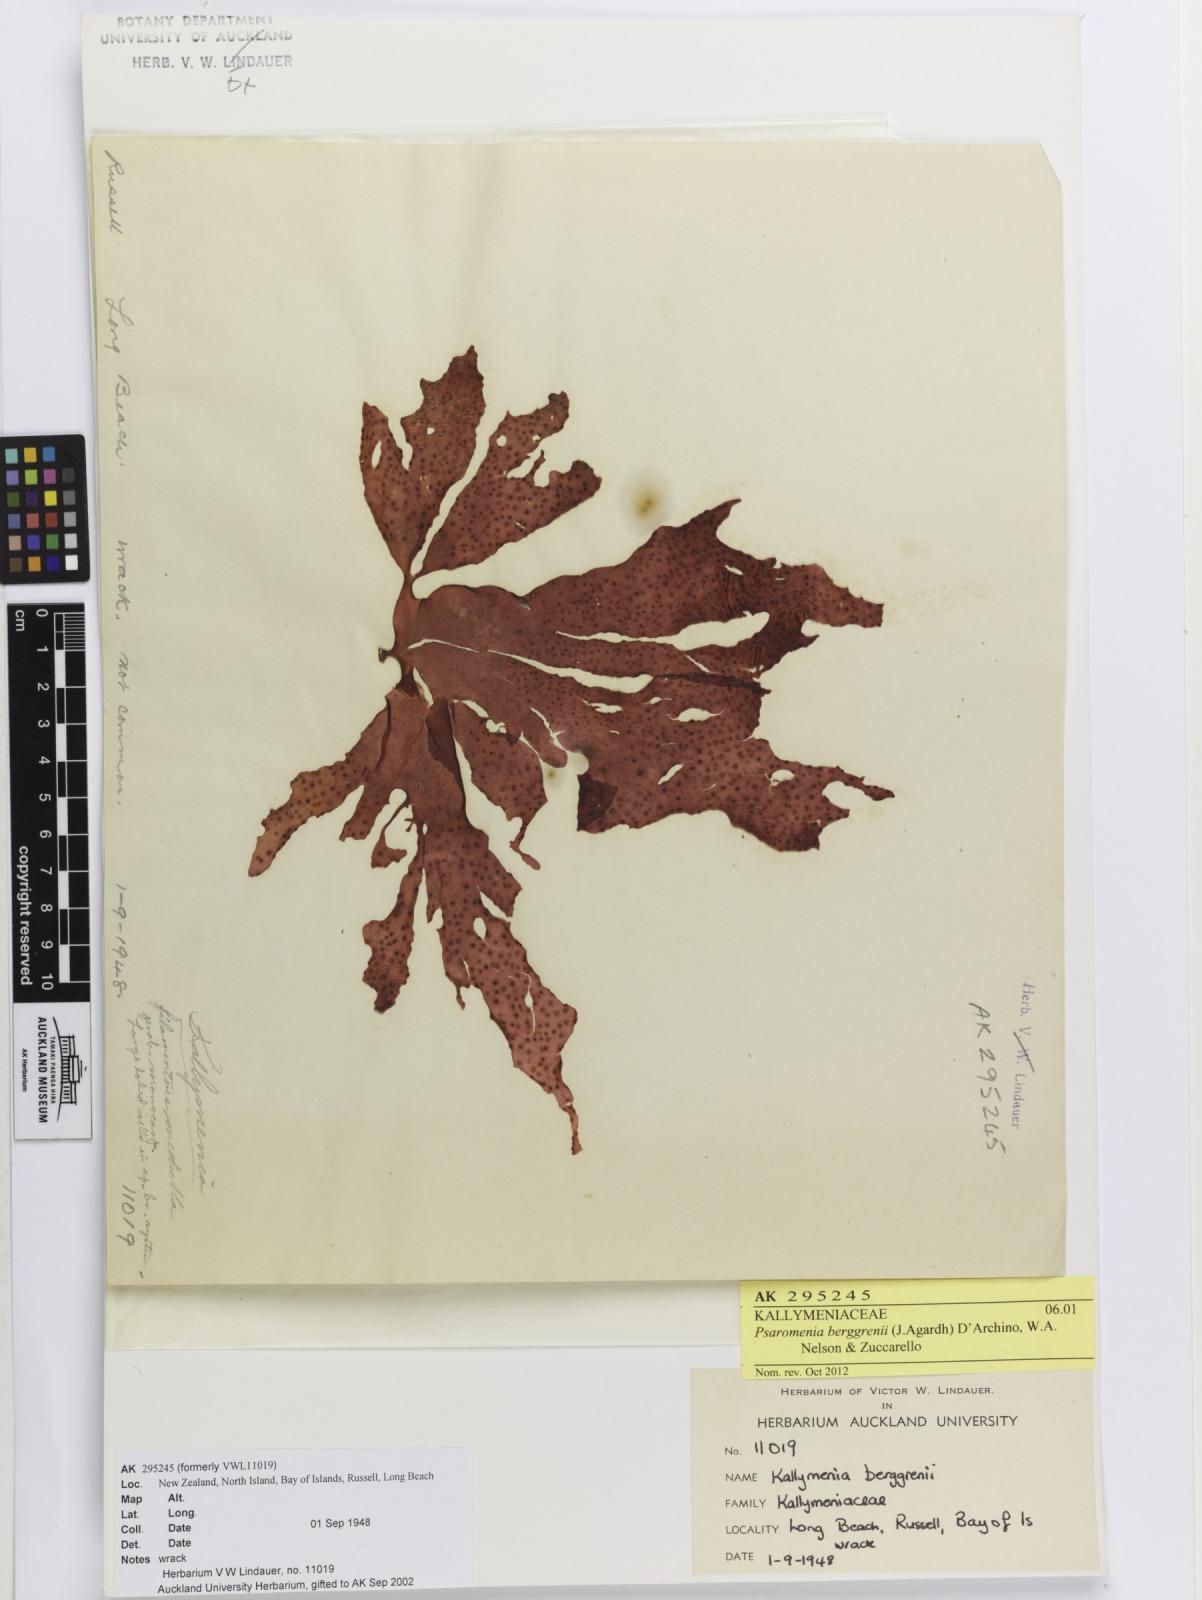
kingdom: Plantae
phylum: Rhodophyta
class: Florideophyceae
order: Gigartinales
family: Kallymeniaceae
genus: Psaromenia
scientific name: Psaromenia berggrenii
